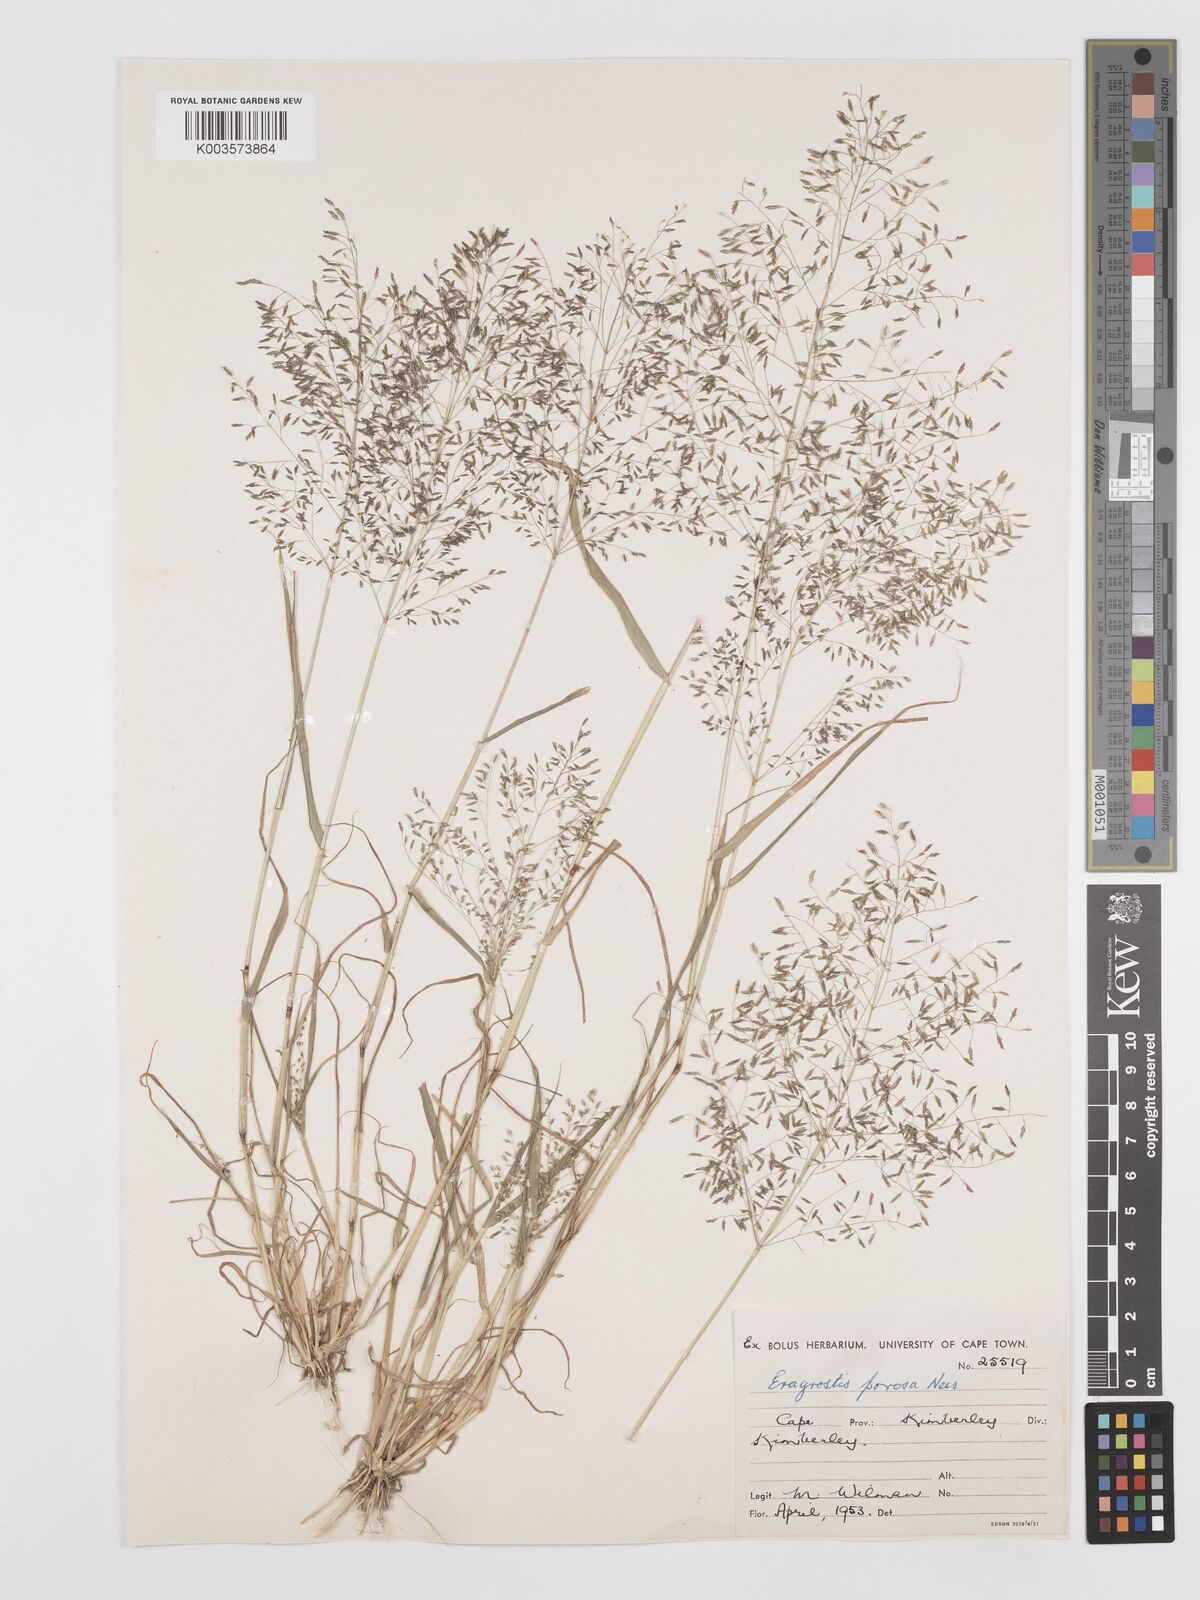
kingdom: Plantae
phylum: Tracheophyta
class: Liliopsida
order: Poales
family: Poaceae
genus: Eragrostis
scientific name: Eragrostis porosa
